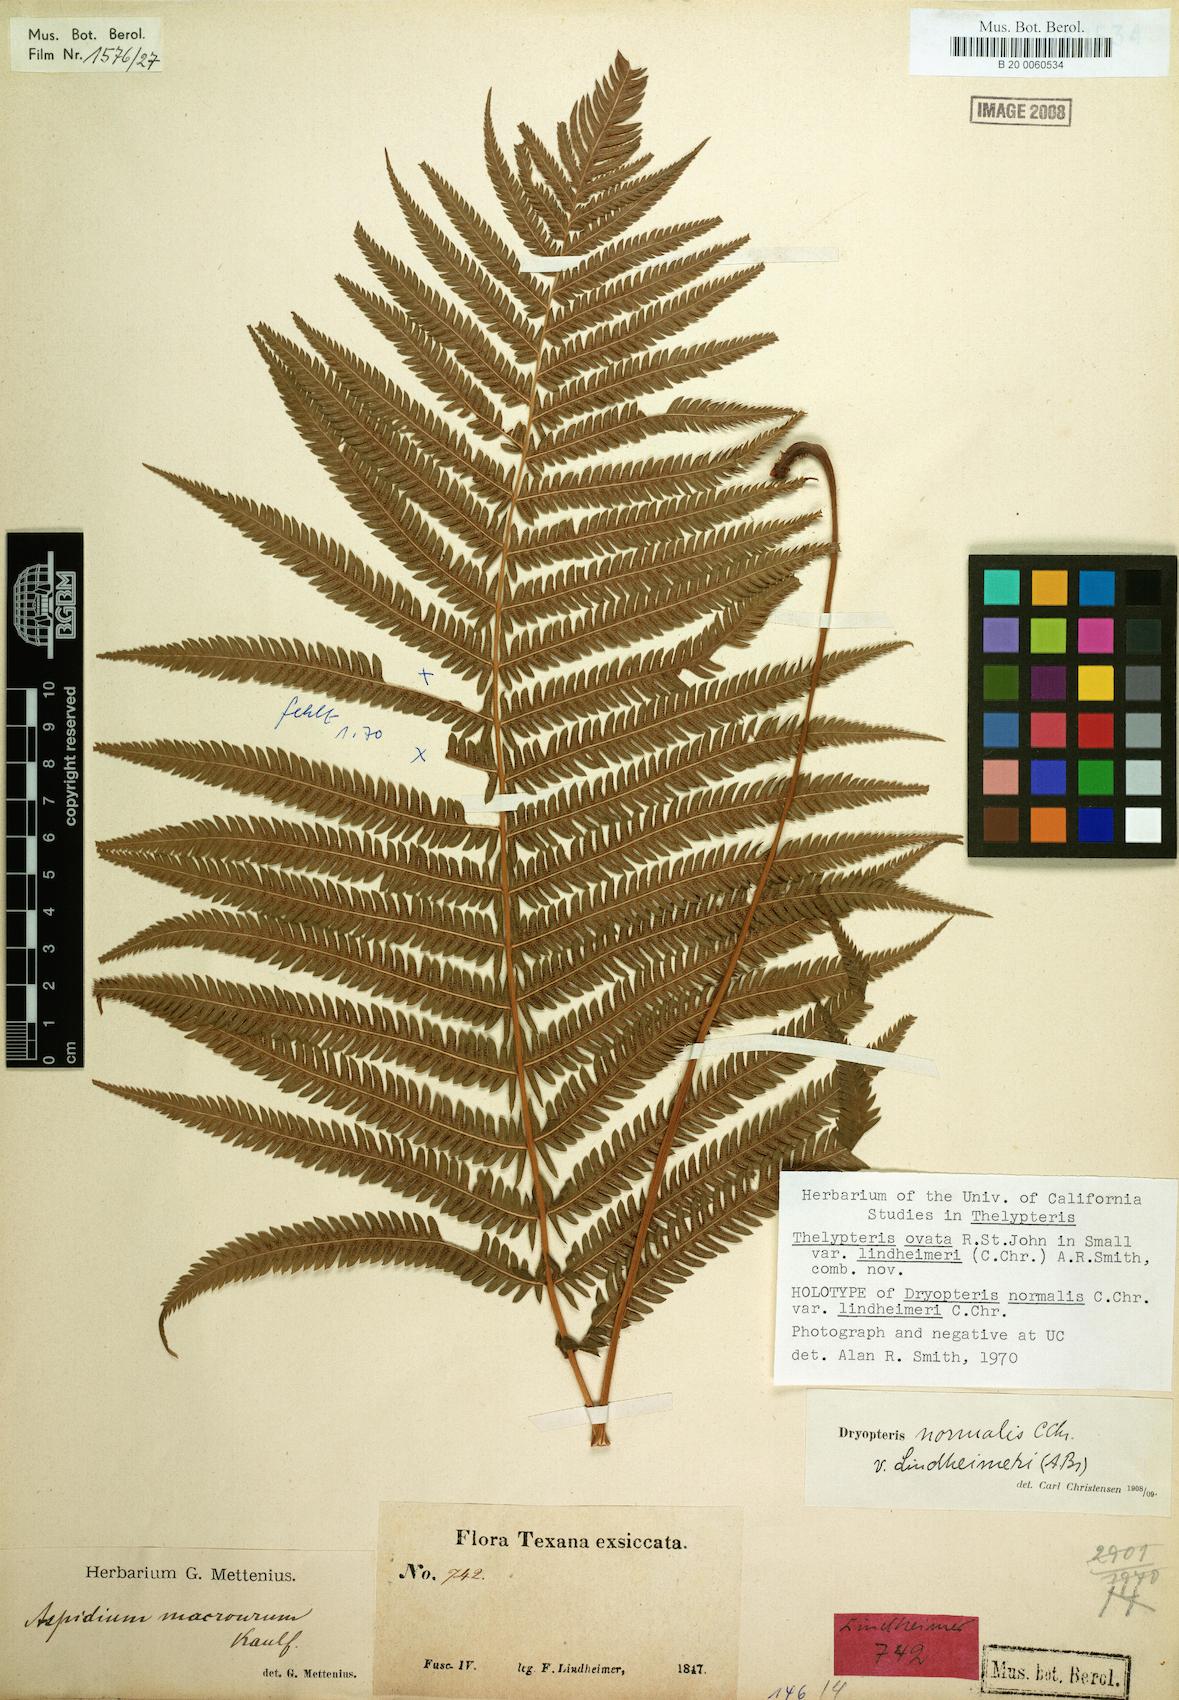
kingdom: Plantae
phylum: Tracheophyta
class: Polypodiopsida
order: Polypodiales
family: Thelypteridaceae
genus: Pelazoneuron
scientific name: Pelazoneuron ovatum
